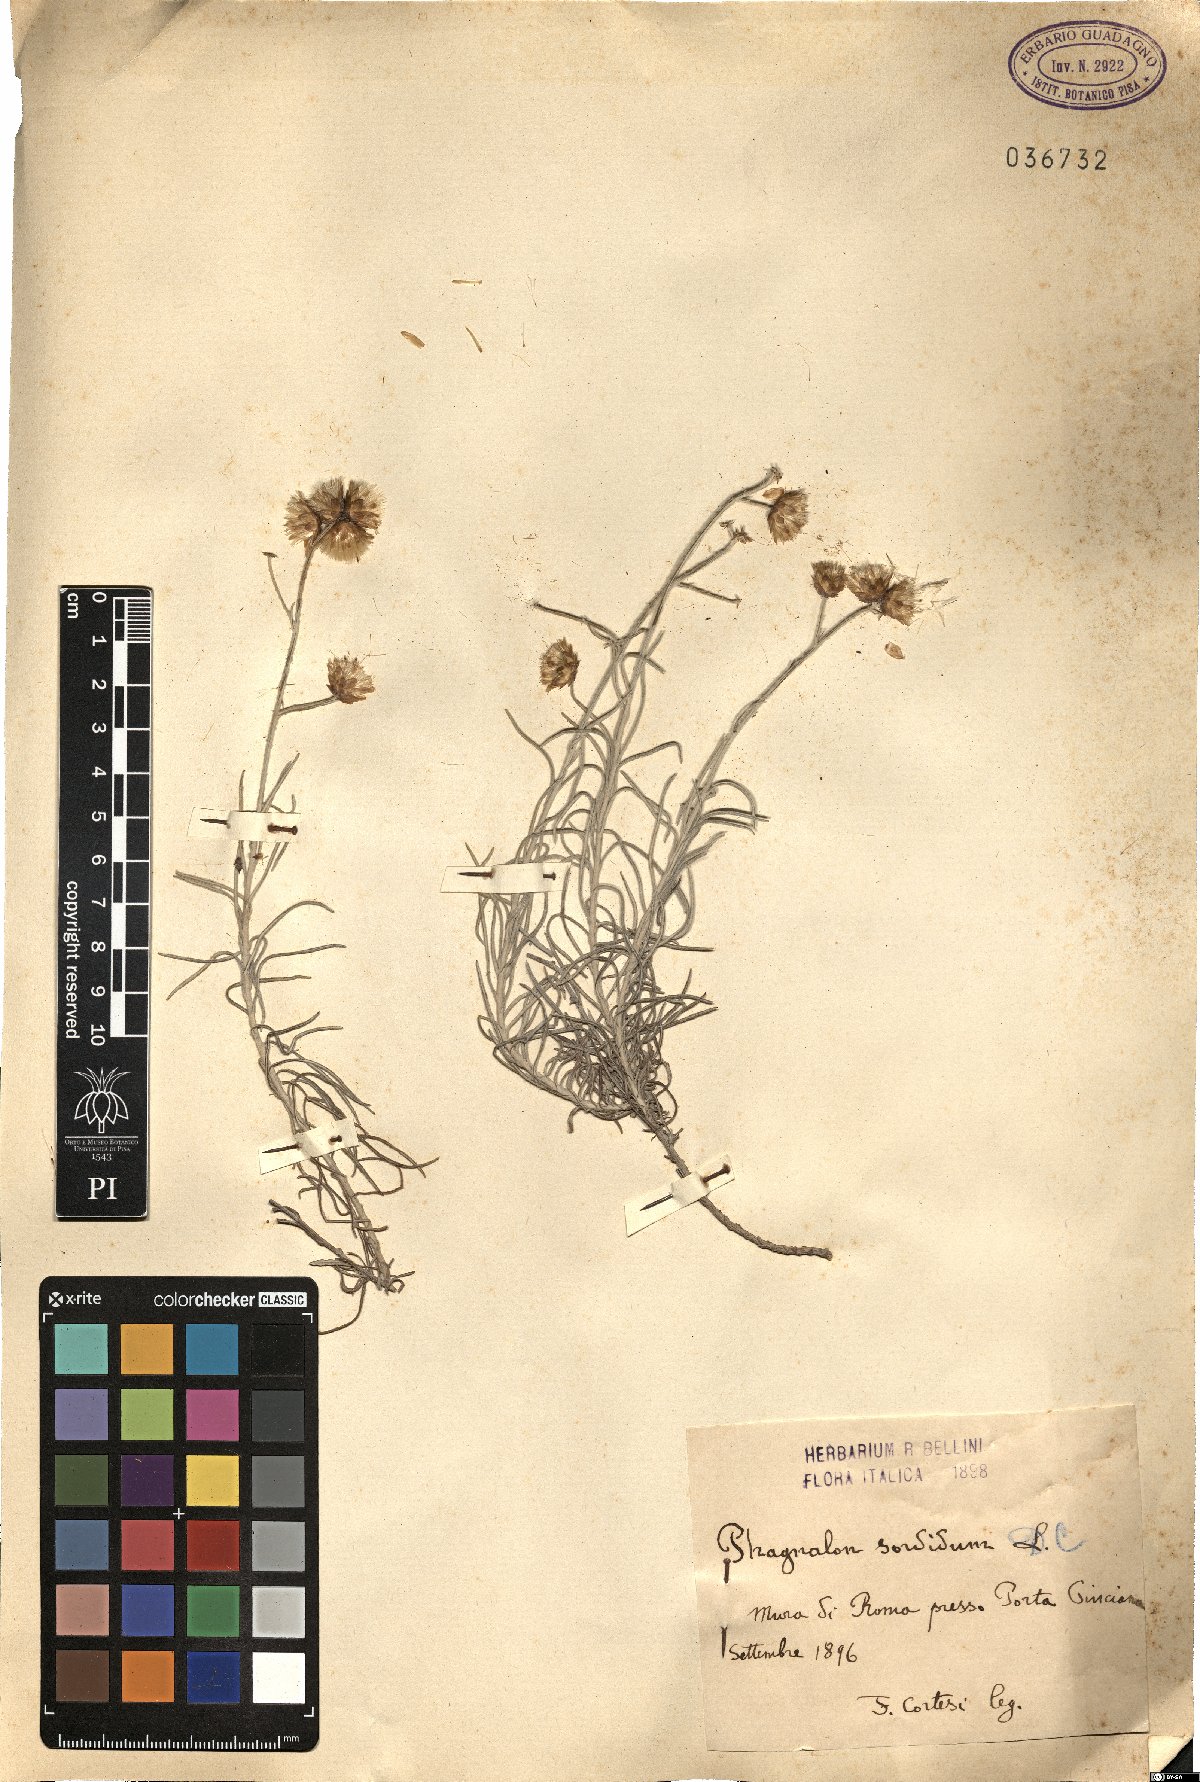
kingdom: Plantae
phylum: Tracheophyta
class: Magnoliopsida
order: Asterales
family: Asteraceae
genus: Phagnalon
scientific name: Phagnalon sordidum
